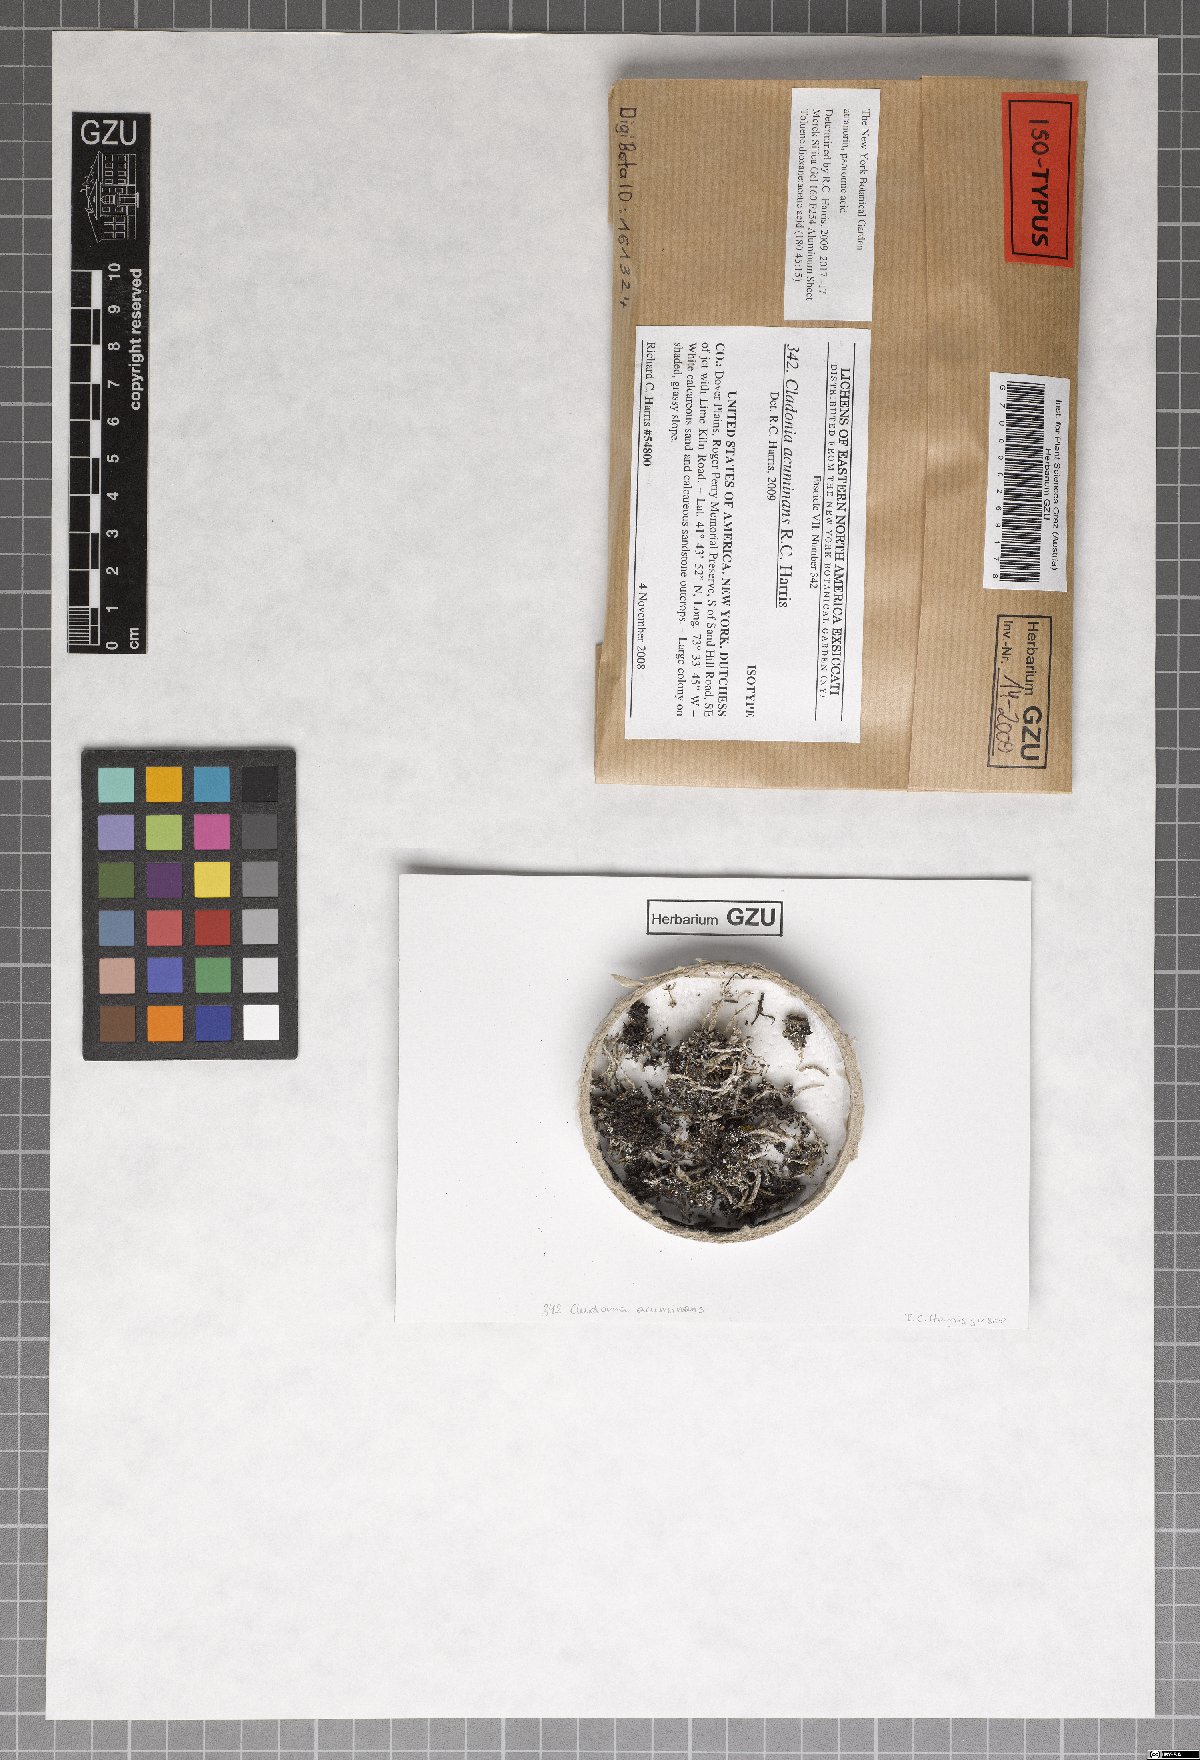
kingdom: Fungi
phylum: Ascomycota
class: Lecanoromycetes
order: Lecanorales
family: Cladoniaceae
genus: Cladonia
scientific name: Cladonia acuminans
